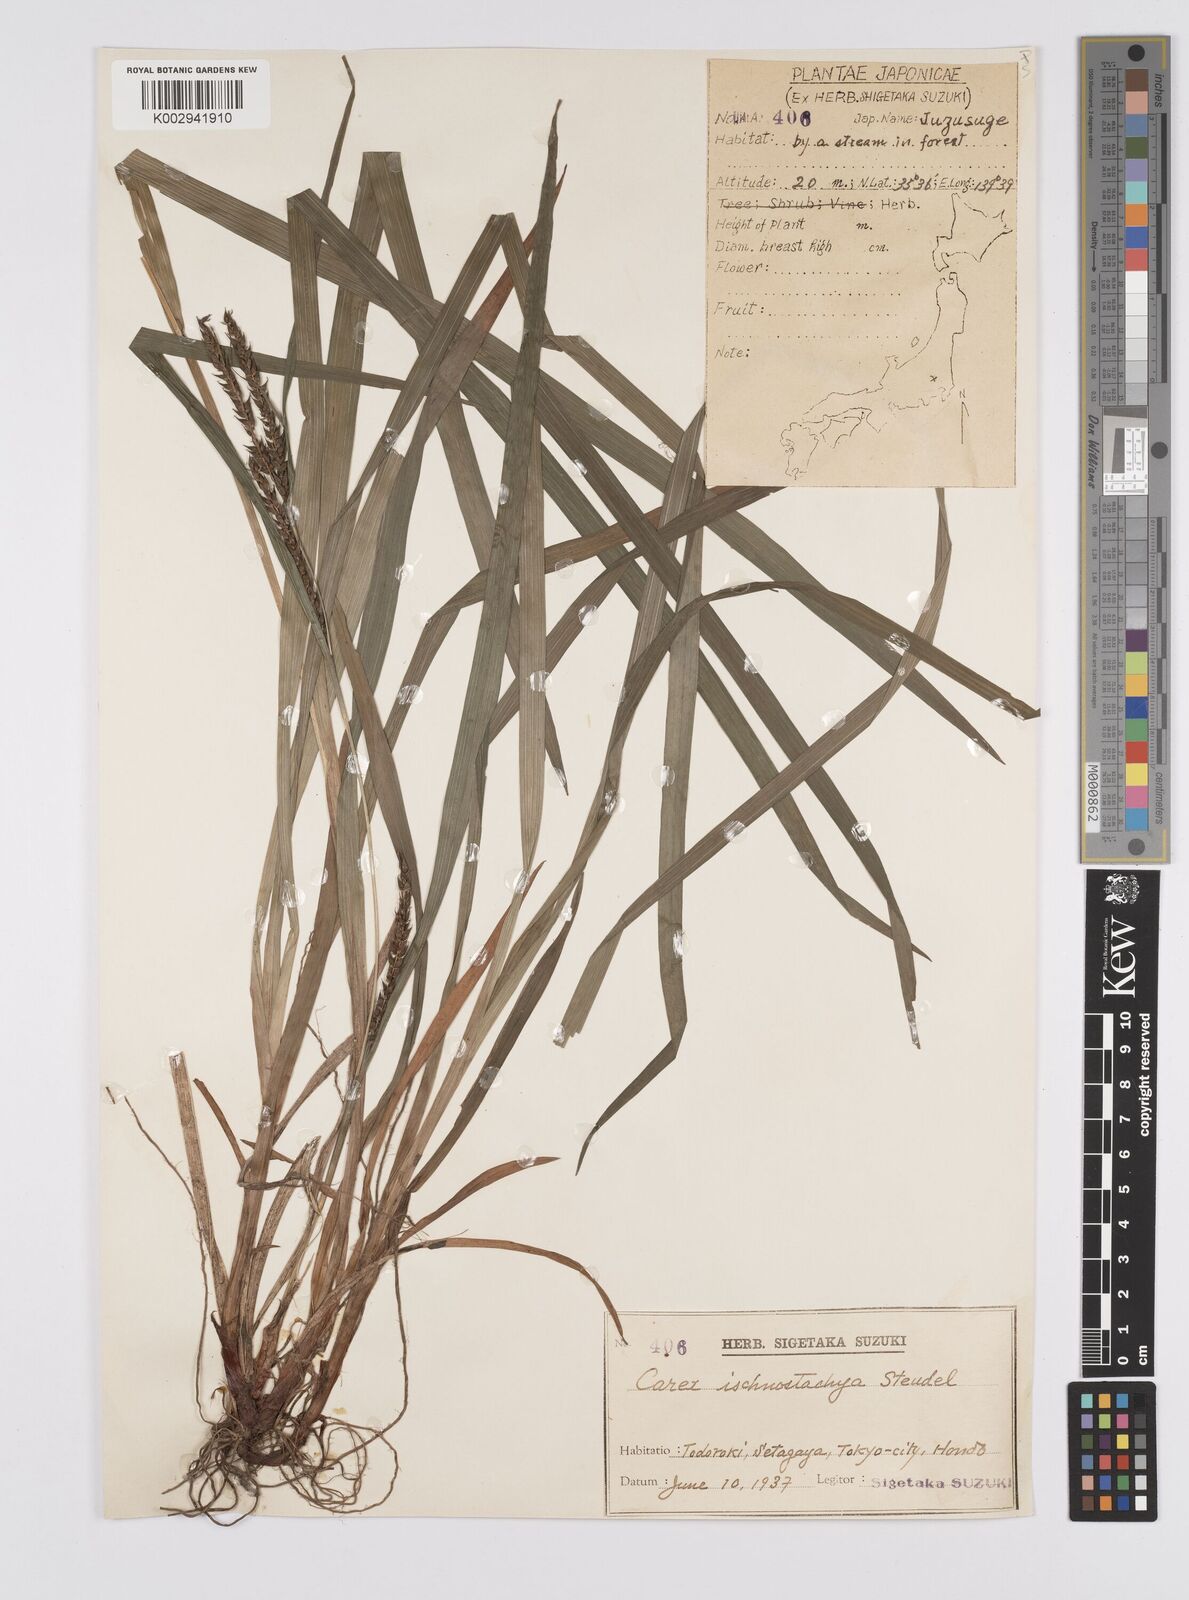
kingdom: Plantae
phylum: Tracheophyta
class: Liliopsida
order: Poales
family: Cyperaceae
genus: Carex
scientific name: Carex ischnostachya
